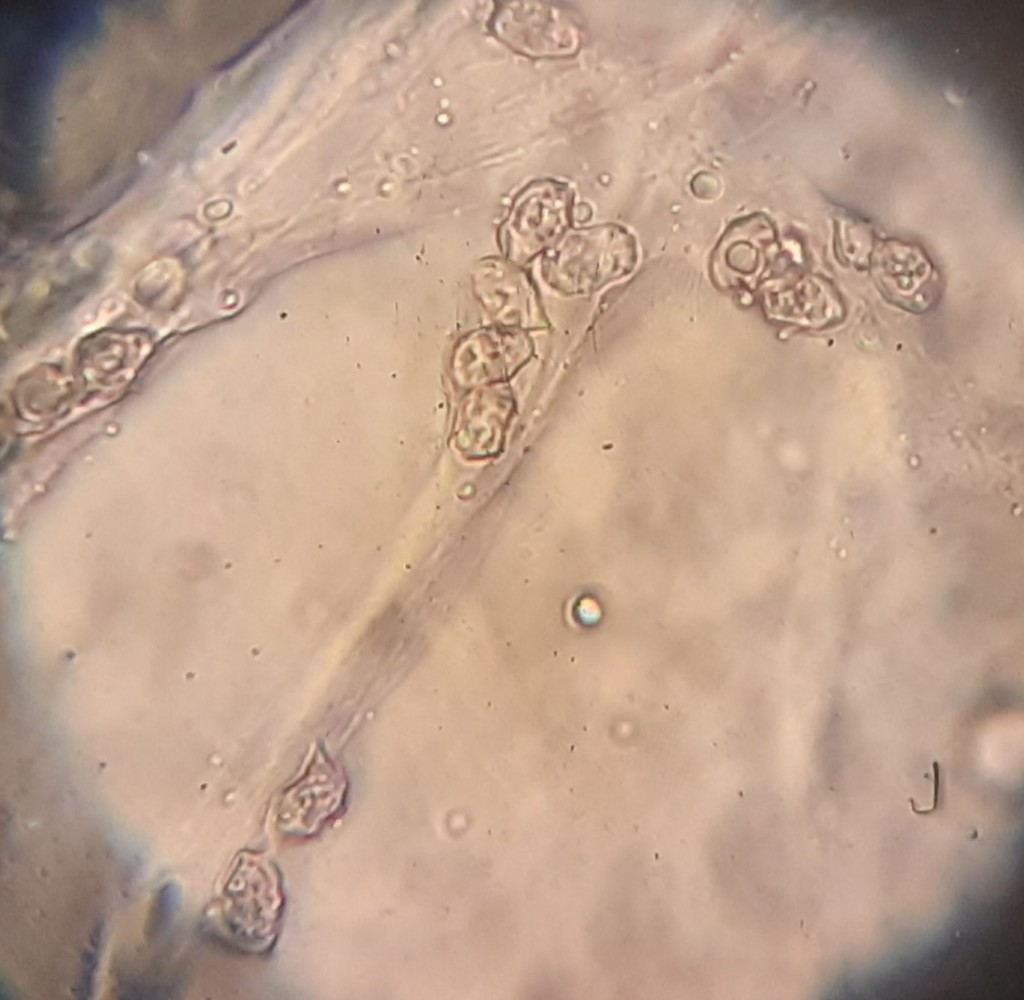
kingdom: Fungi
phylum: Basidiomycota
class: Agaricomycetes
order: Agaricales
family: Entolomataceae
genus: Entoloma
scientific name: Entoloma cetratum
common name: voks-rødblad
